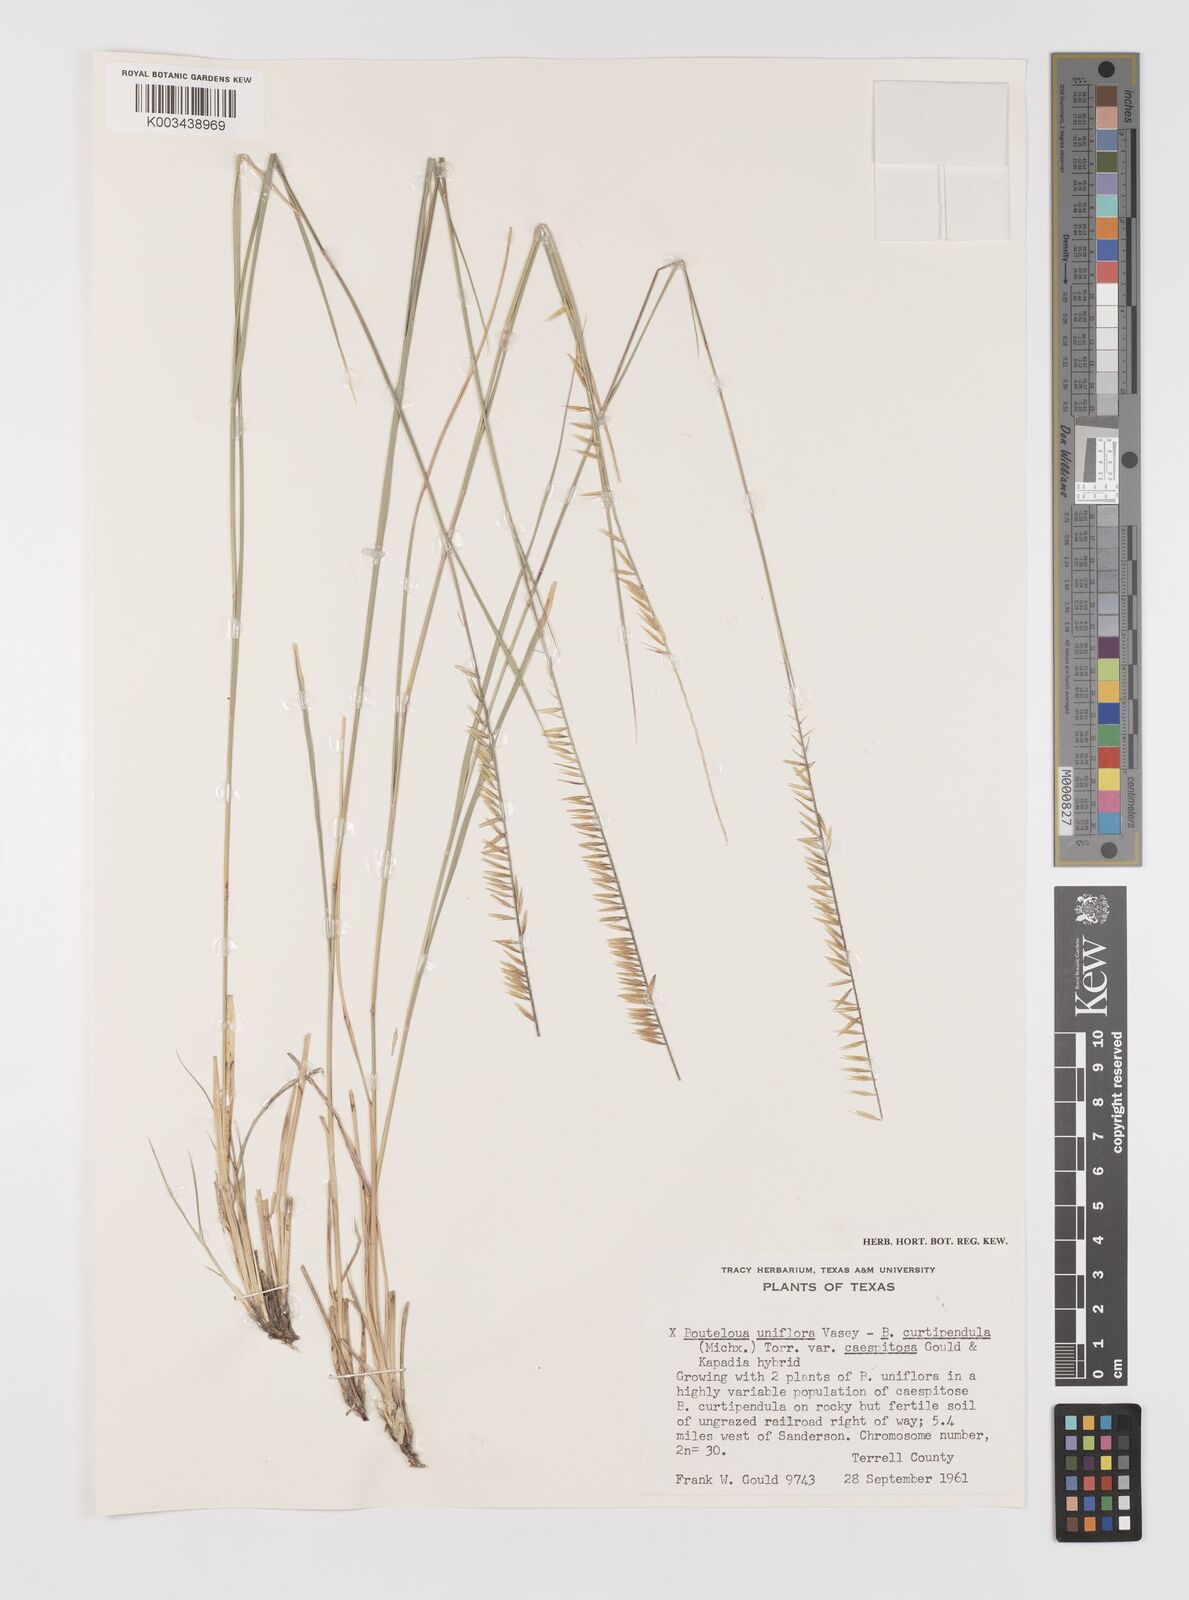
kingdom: Plantae
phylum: Tracheophyta
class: Liliopsida
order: Poales
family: Poaceae
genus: Bouteloua
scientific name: Bouteloua curtipendula
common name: Side-oats grama
